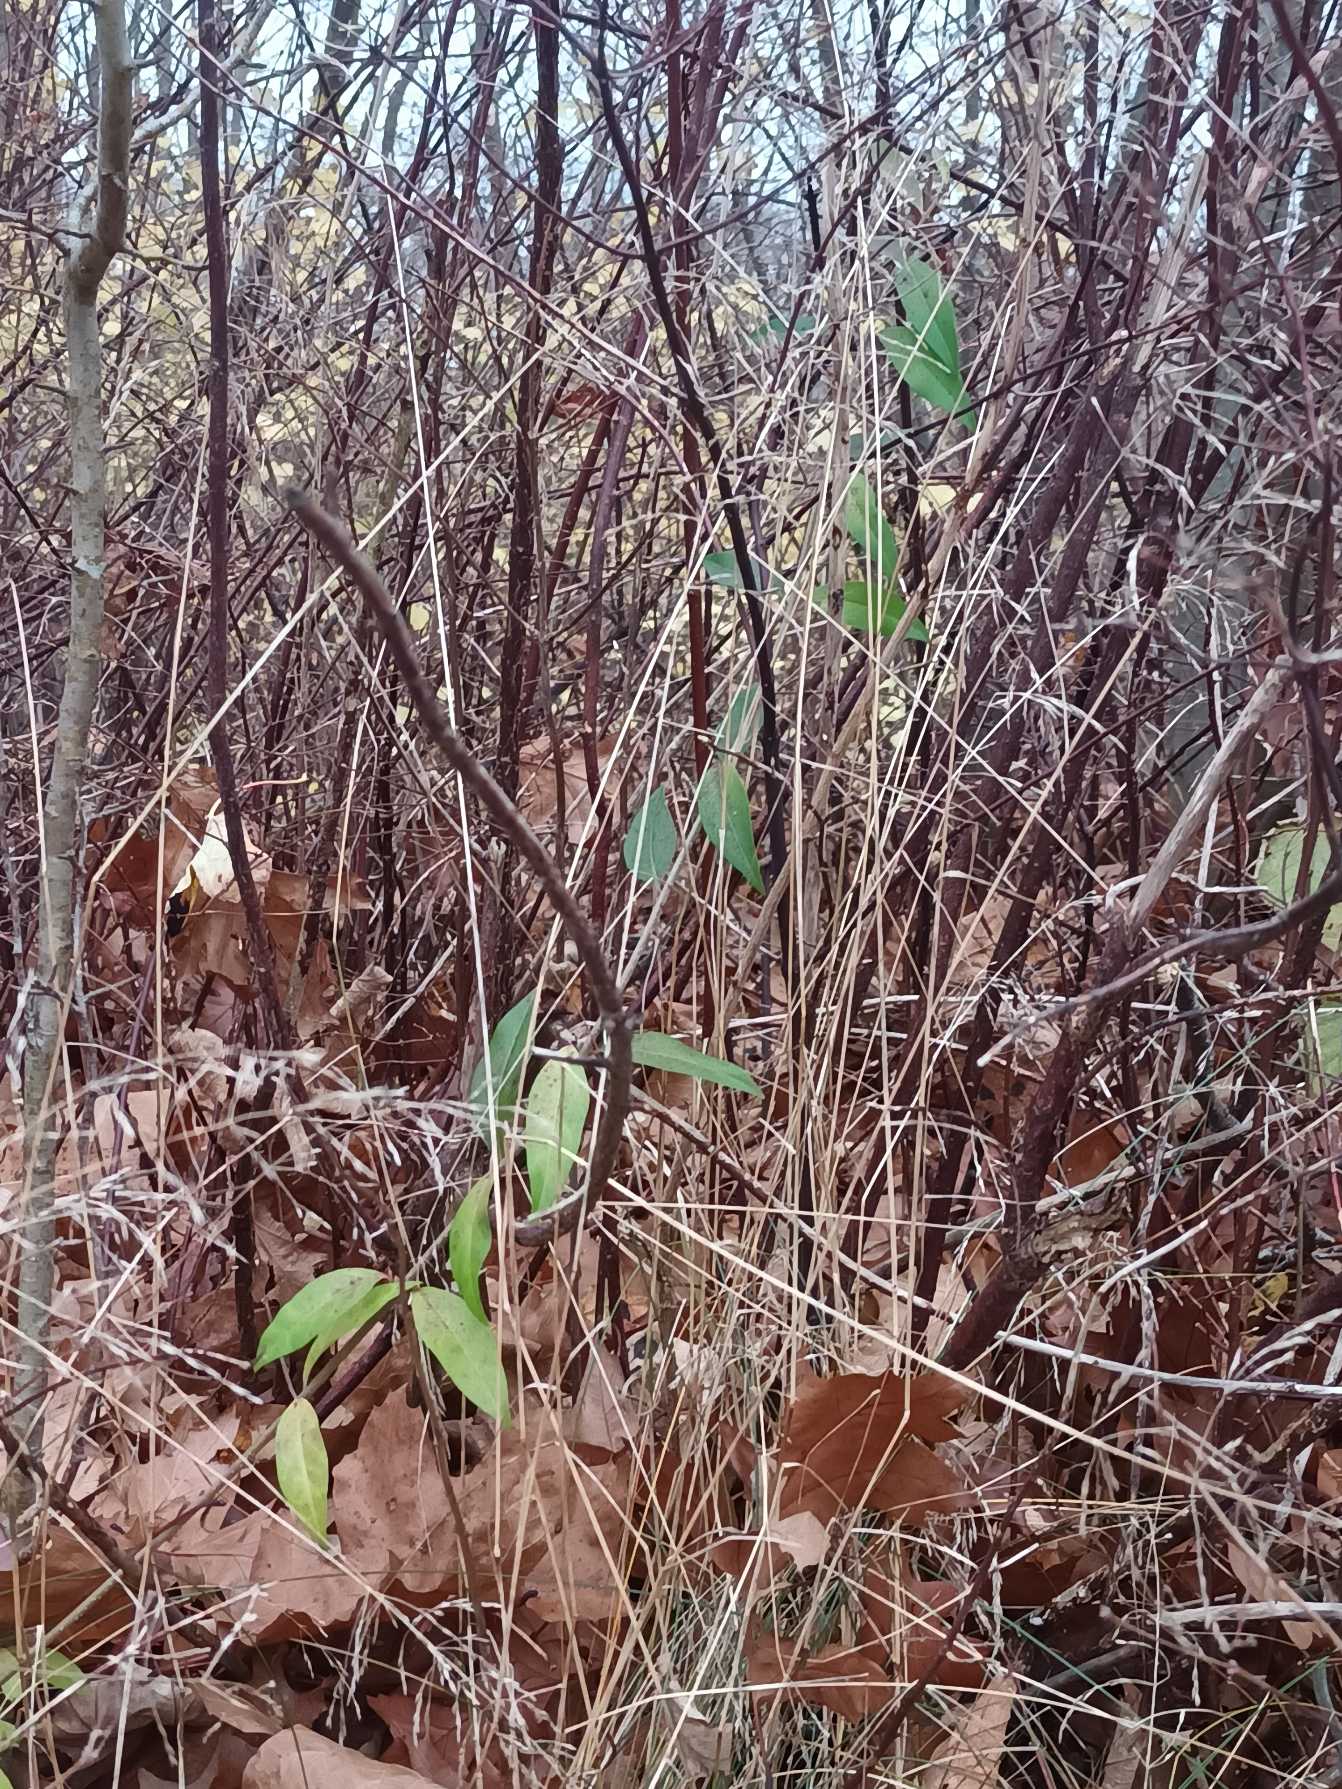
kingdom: Plantae
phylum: Tracheophyta
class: Magnoliopsida
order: Lamiales
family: Oleaceae
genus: Ligustrum
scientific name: Ligustrum vulgare
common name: Liguster
